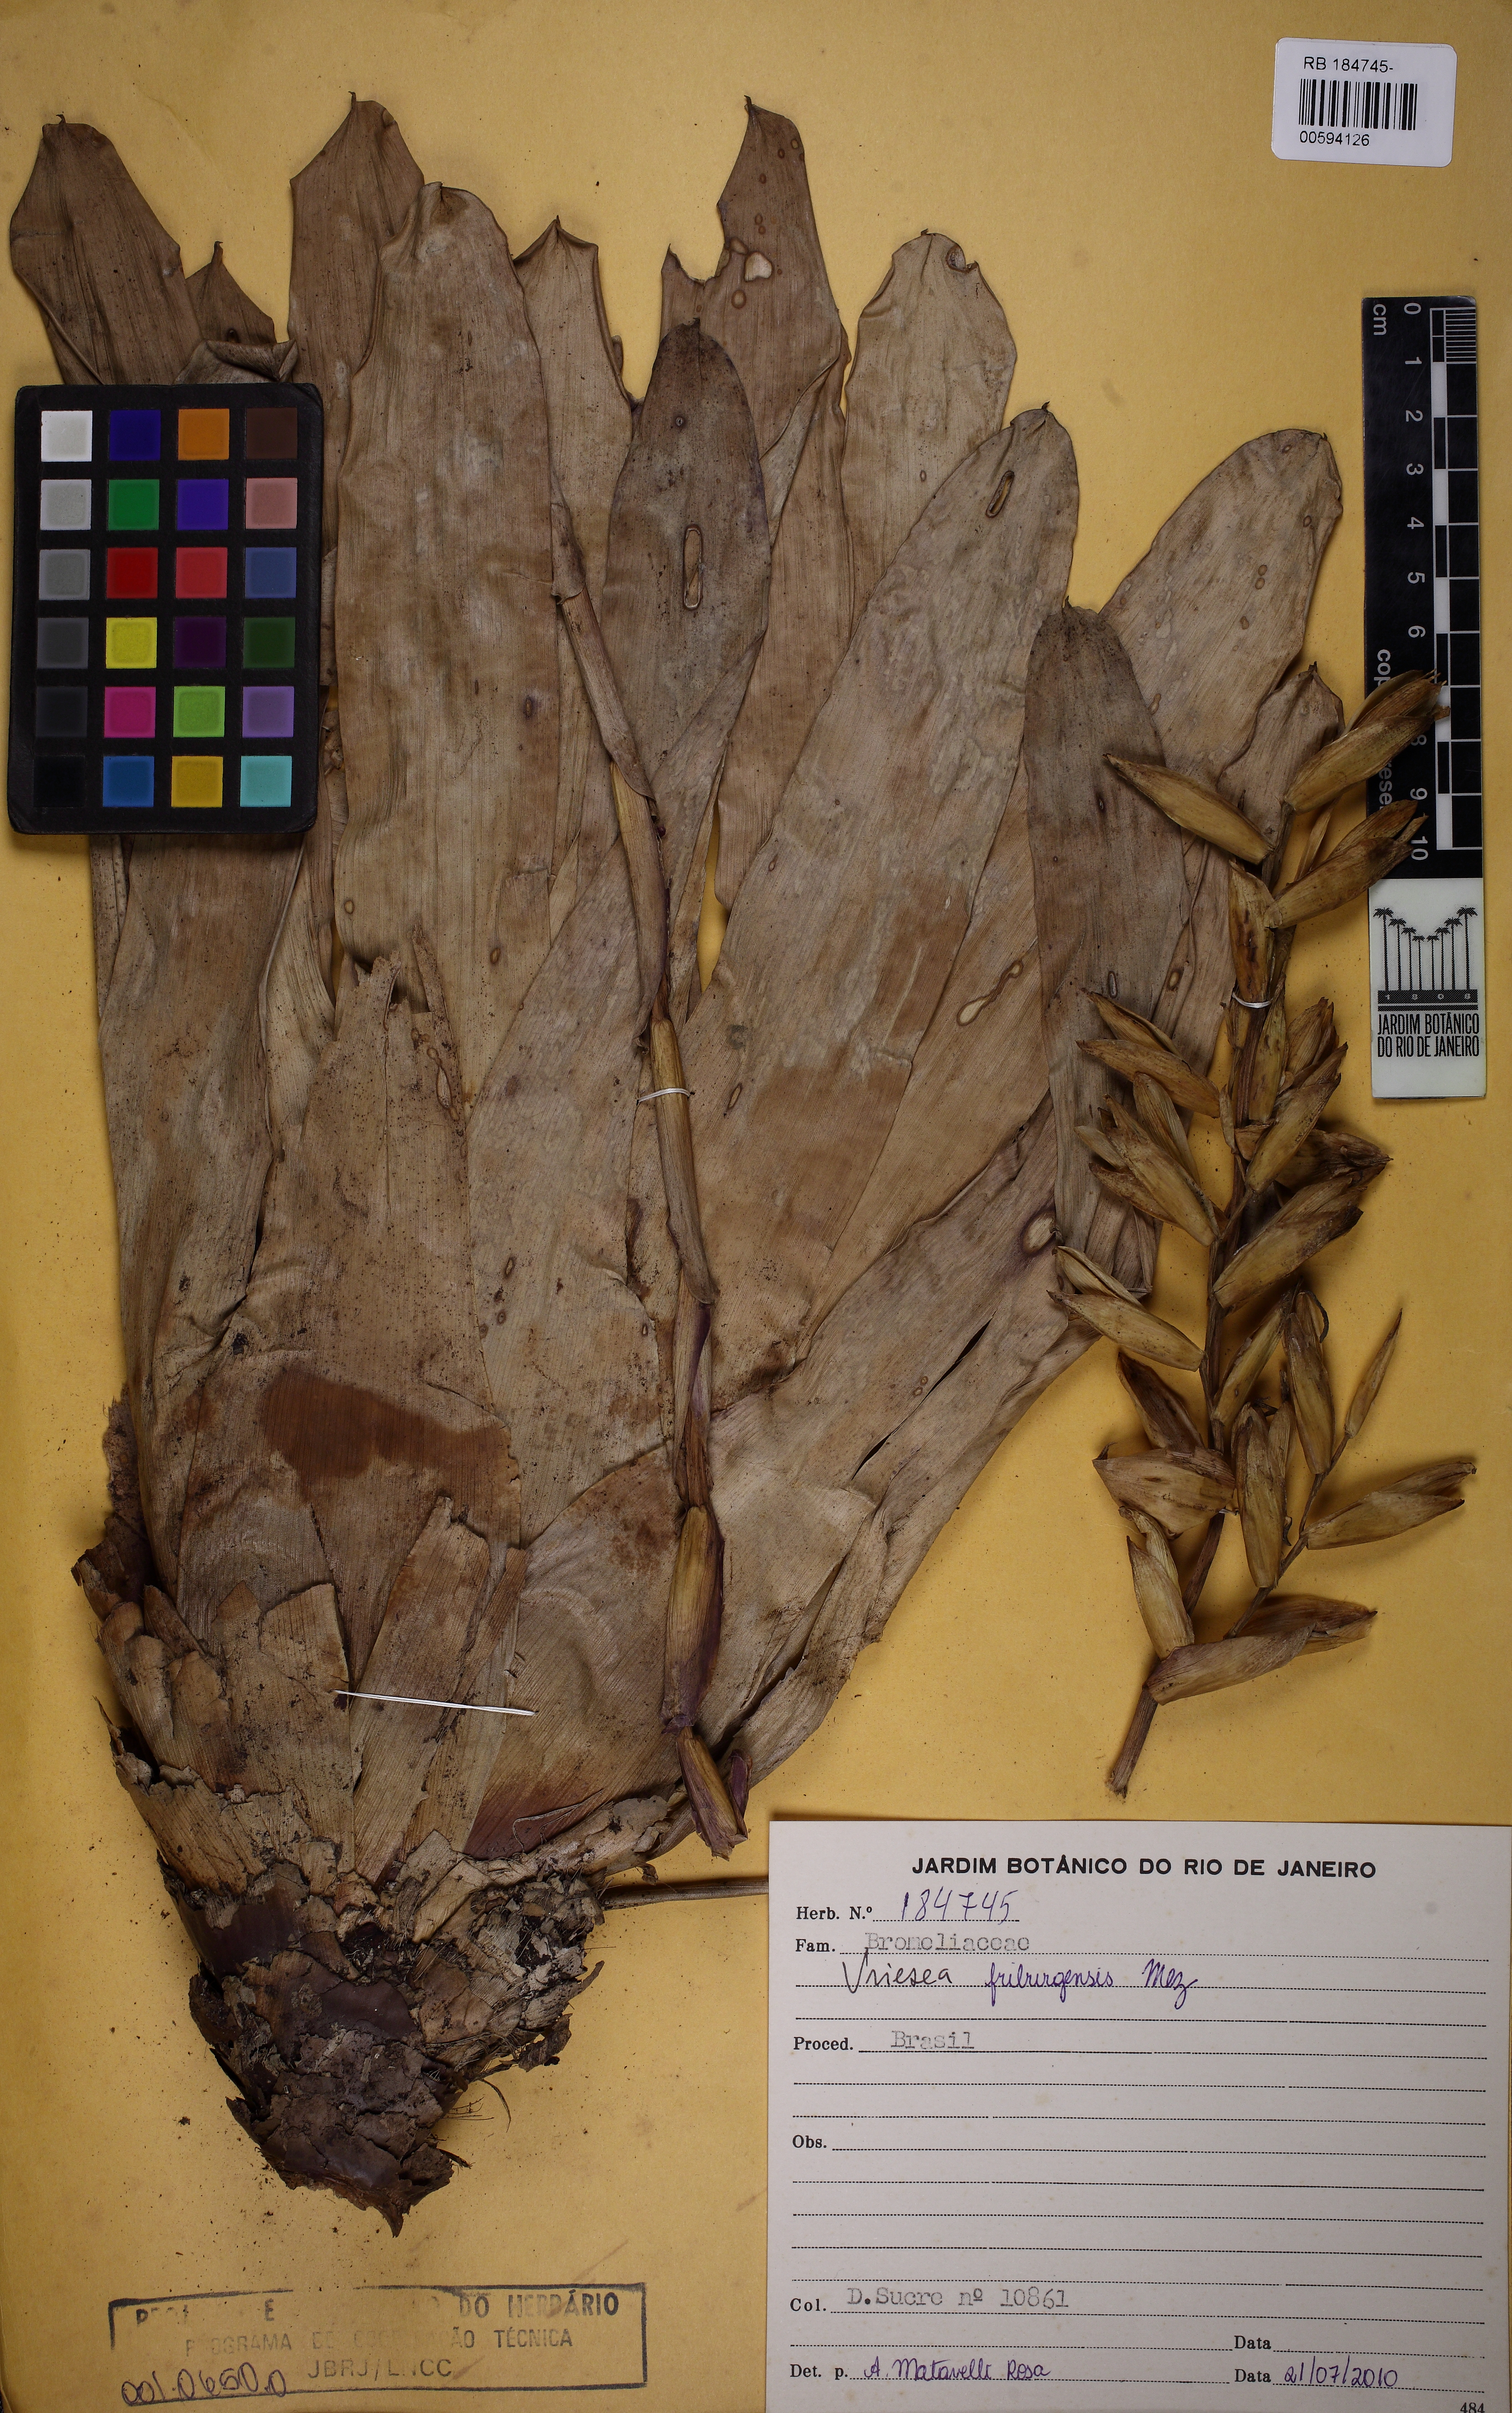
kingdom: Plantae
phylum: Tracheophyta
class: Liliopsida
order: Poales
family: Bromeliaceae
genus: Vriesea
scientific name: Vriesea friburgensis
